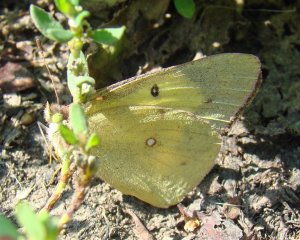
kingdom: Animalia
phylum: Arthropoda
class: Insecta
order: Lepidoptera
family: Pieridae
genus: Colias
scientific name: Colias philodice
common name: Clouded Sulphur
